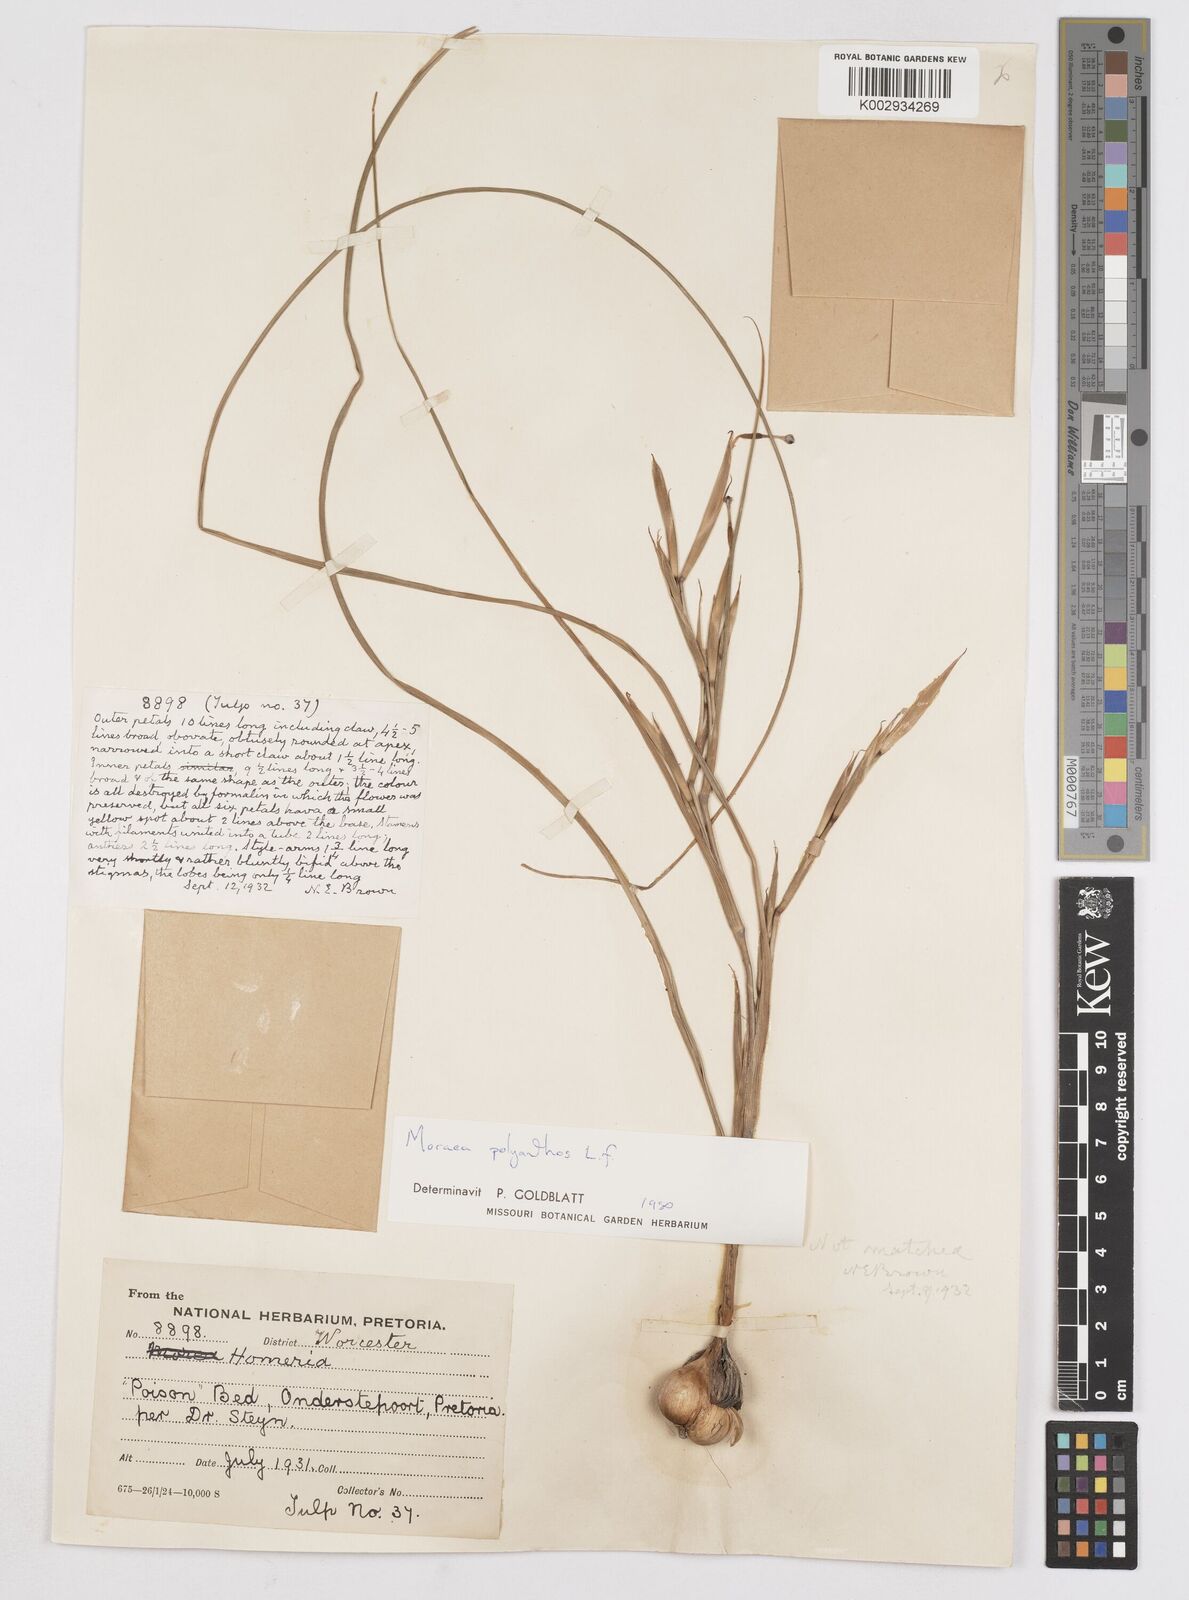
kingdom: Plantae
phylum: Tracheophyta
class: Liliopsida
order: Asparagales
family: Iridaceae
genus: Moraea
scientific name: Moraea bipartita
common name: Blue tulp
